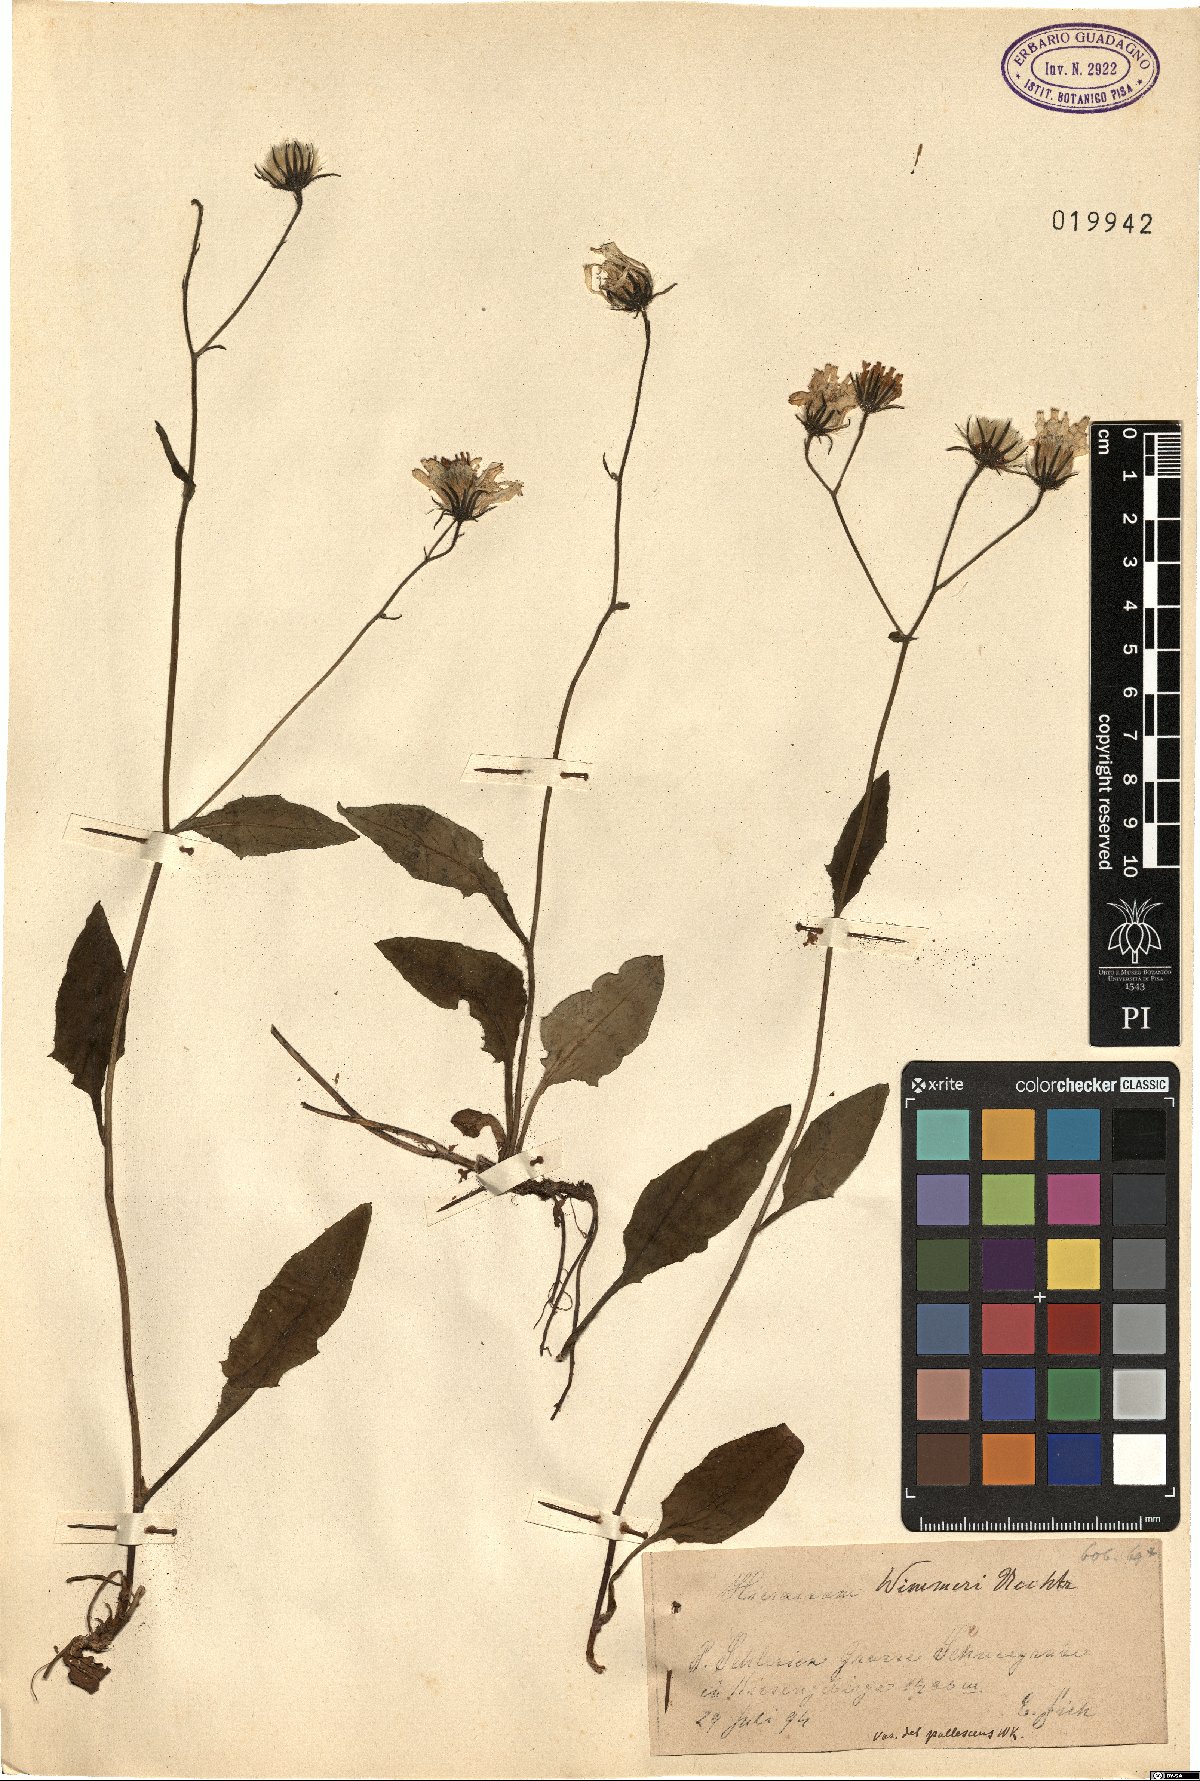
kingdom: Plantae
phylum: Tracheophyta
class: Magnoliopsida
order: Asterales
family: Asteraceae
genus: Hieracium
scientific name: Hieracium froelichianum
